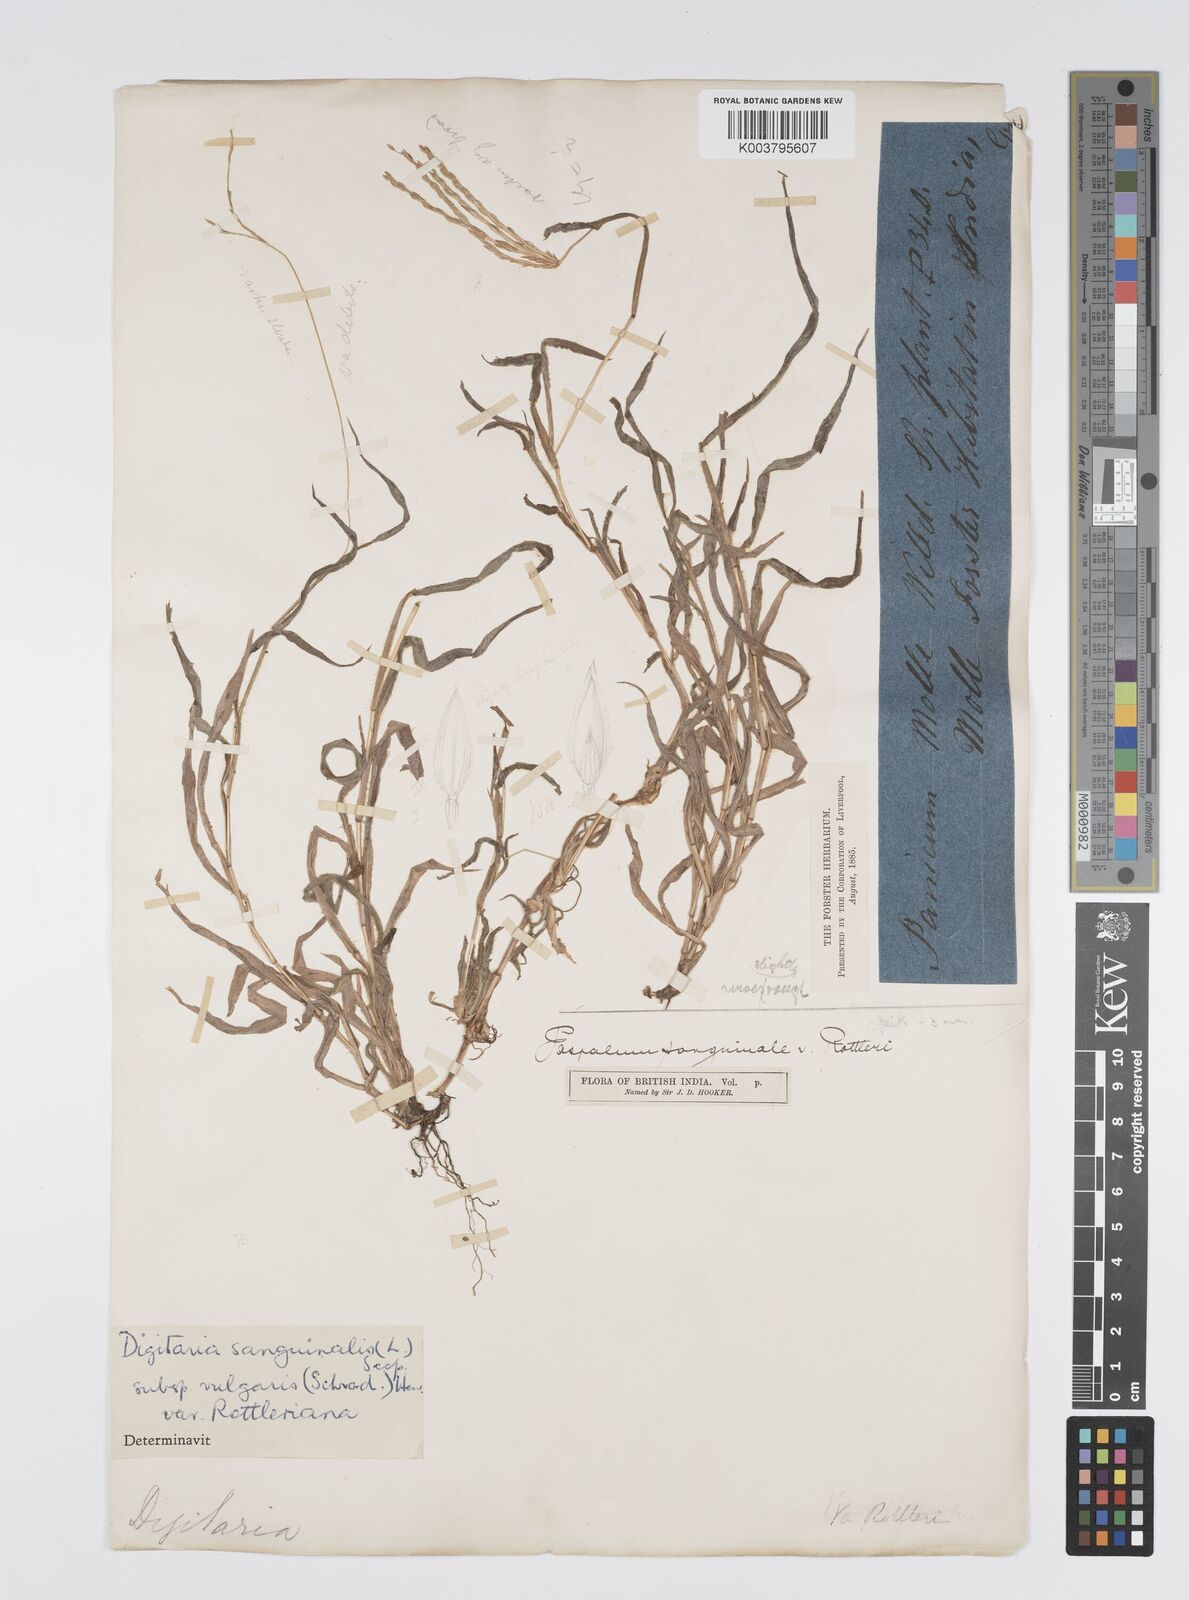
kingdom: Plantae
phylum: Tracheophyta
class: Liliopsida
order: Poales
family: Poaceae
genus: Digitaria
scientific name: Digitaria sanguinalis
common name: Hairy crabgrass
